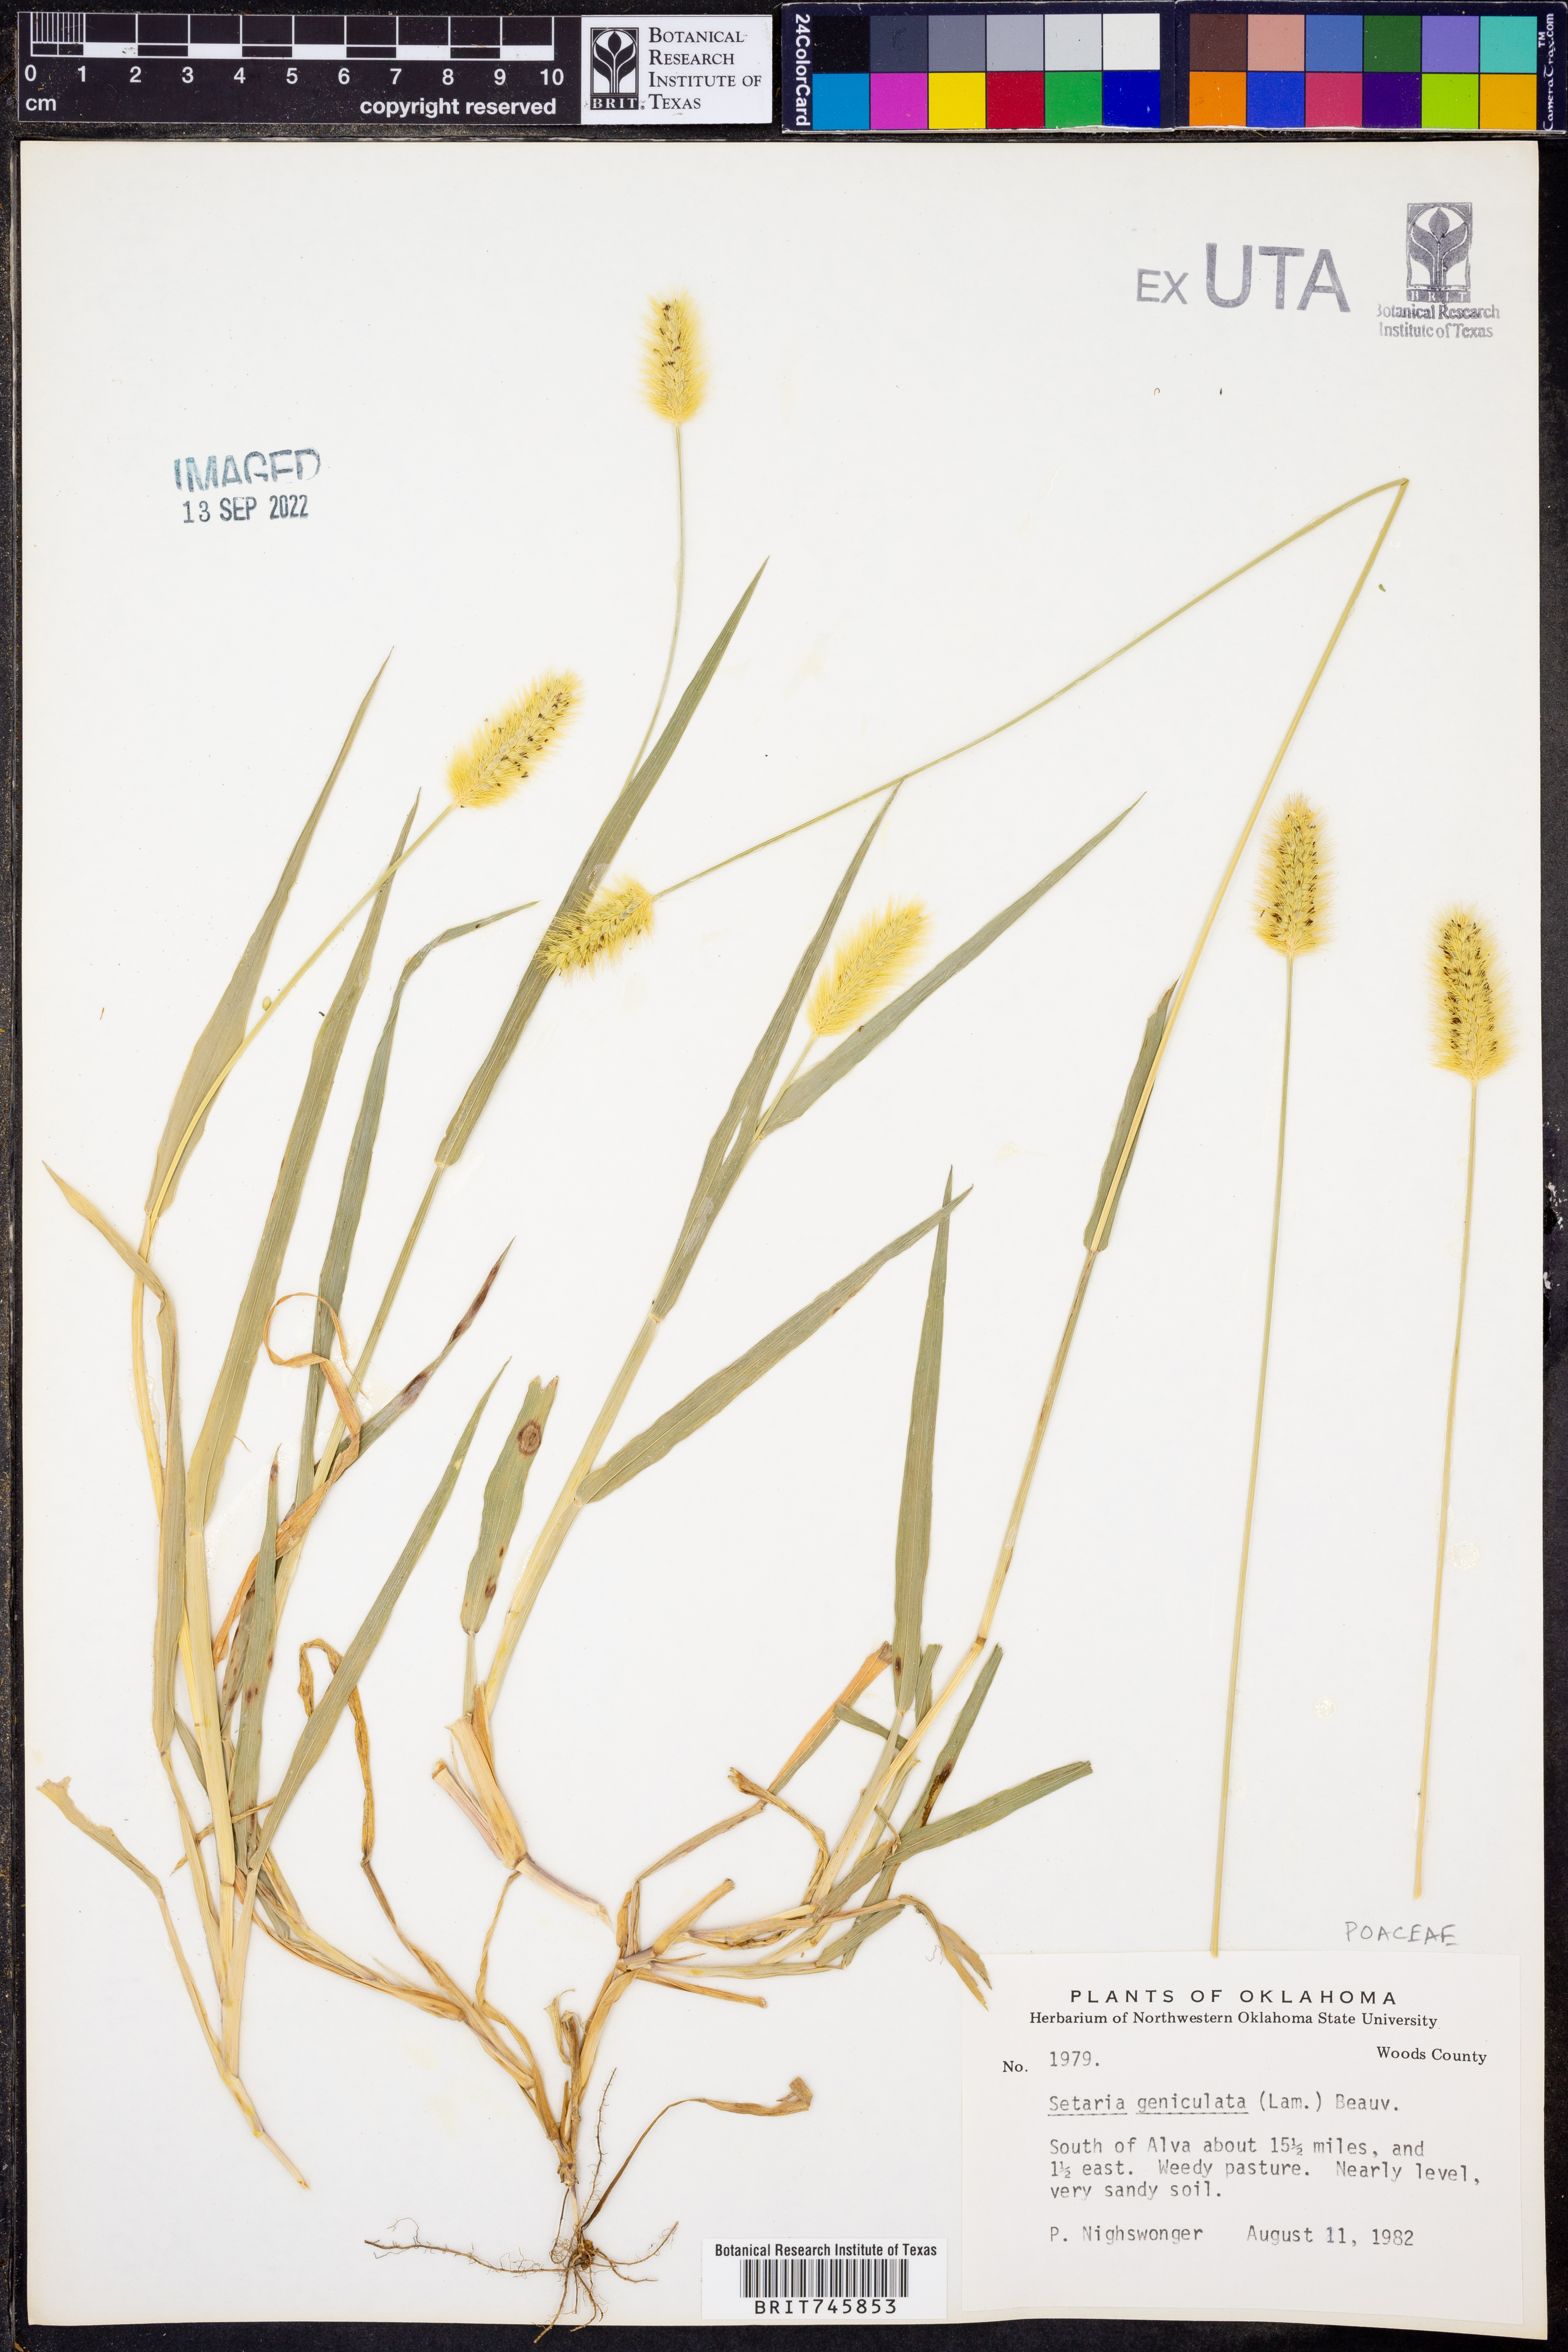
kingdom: Plantae
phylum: Tracheophyta
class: Liliopsida
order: Poales
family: Poaceae
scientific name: Poaceae
